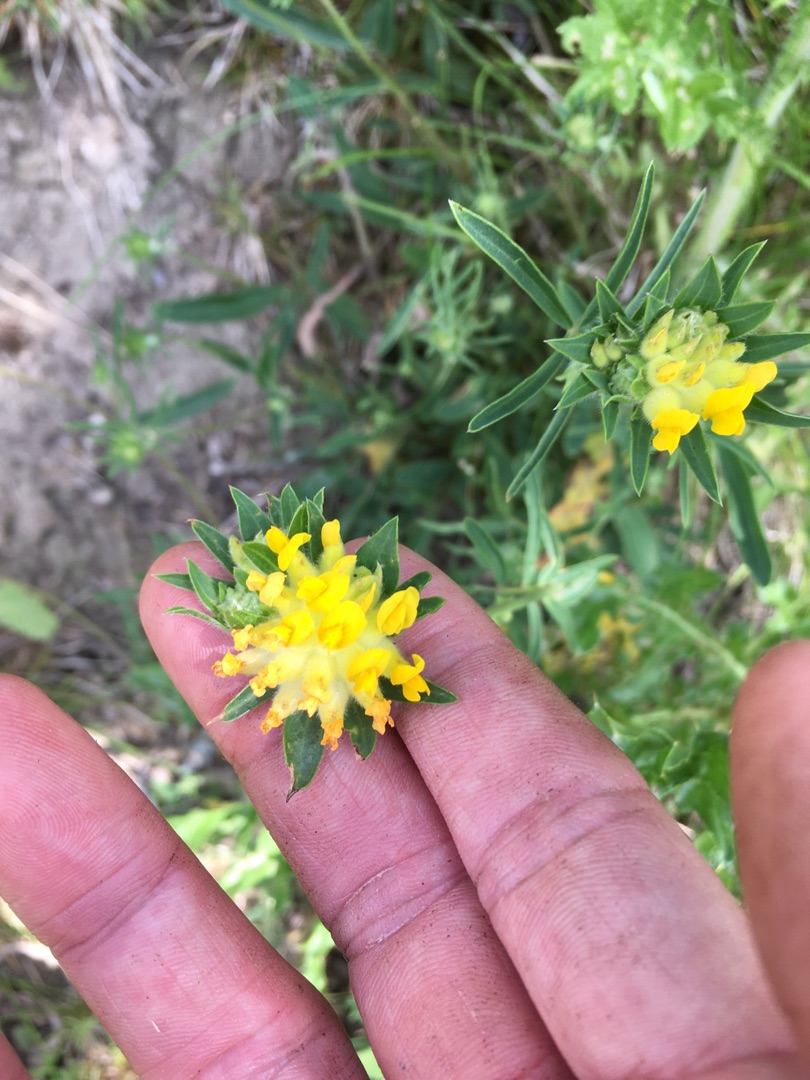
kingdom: Plantae
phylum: Tracheophyta
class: Magnoliopsida
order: Fabales
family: Fabaceae
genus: Anthyllis
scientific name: Anthyllis vulneraria
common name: Rundbælg
